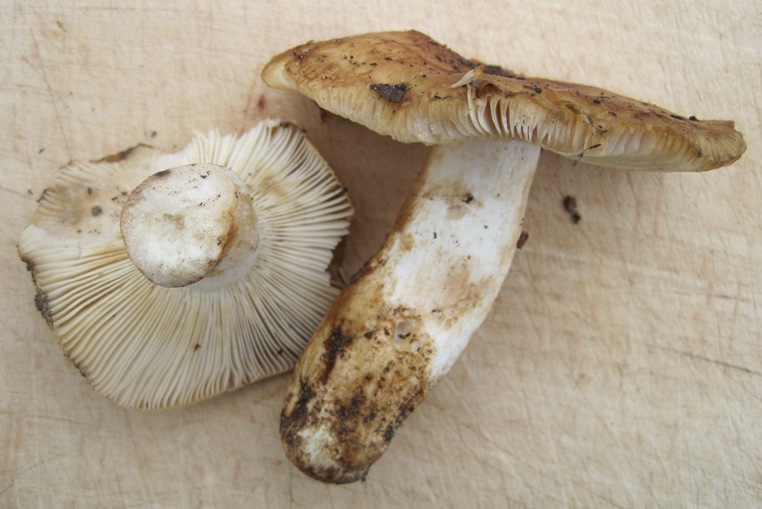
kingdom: Fungi
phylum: Basidiomycota
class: Agaricomycetes
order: Russulales
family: Russulaceae
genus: Russula
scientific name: Russula grata
